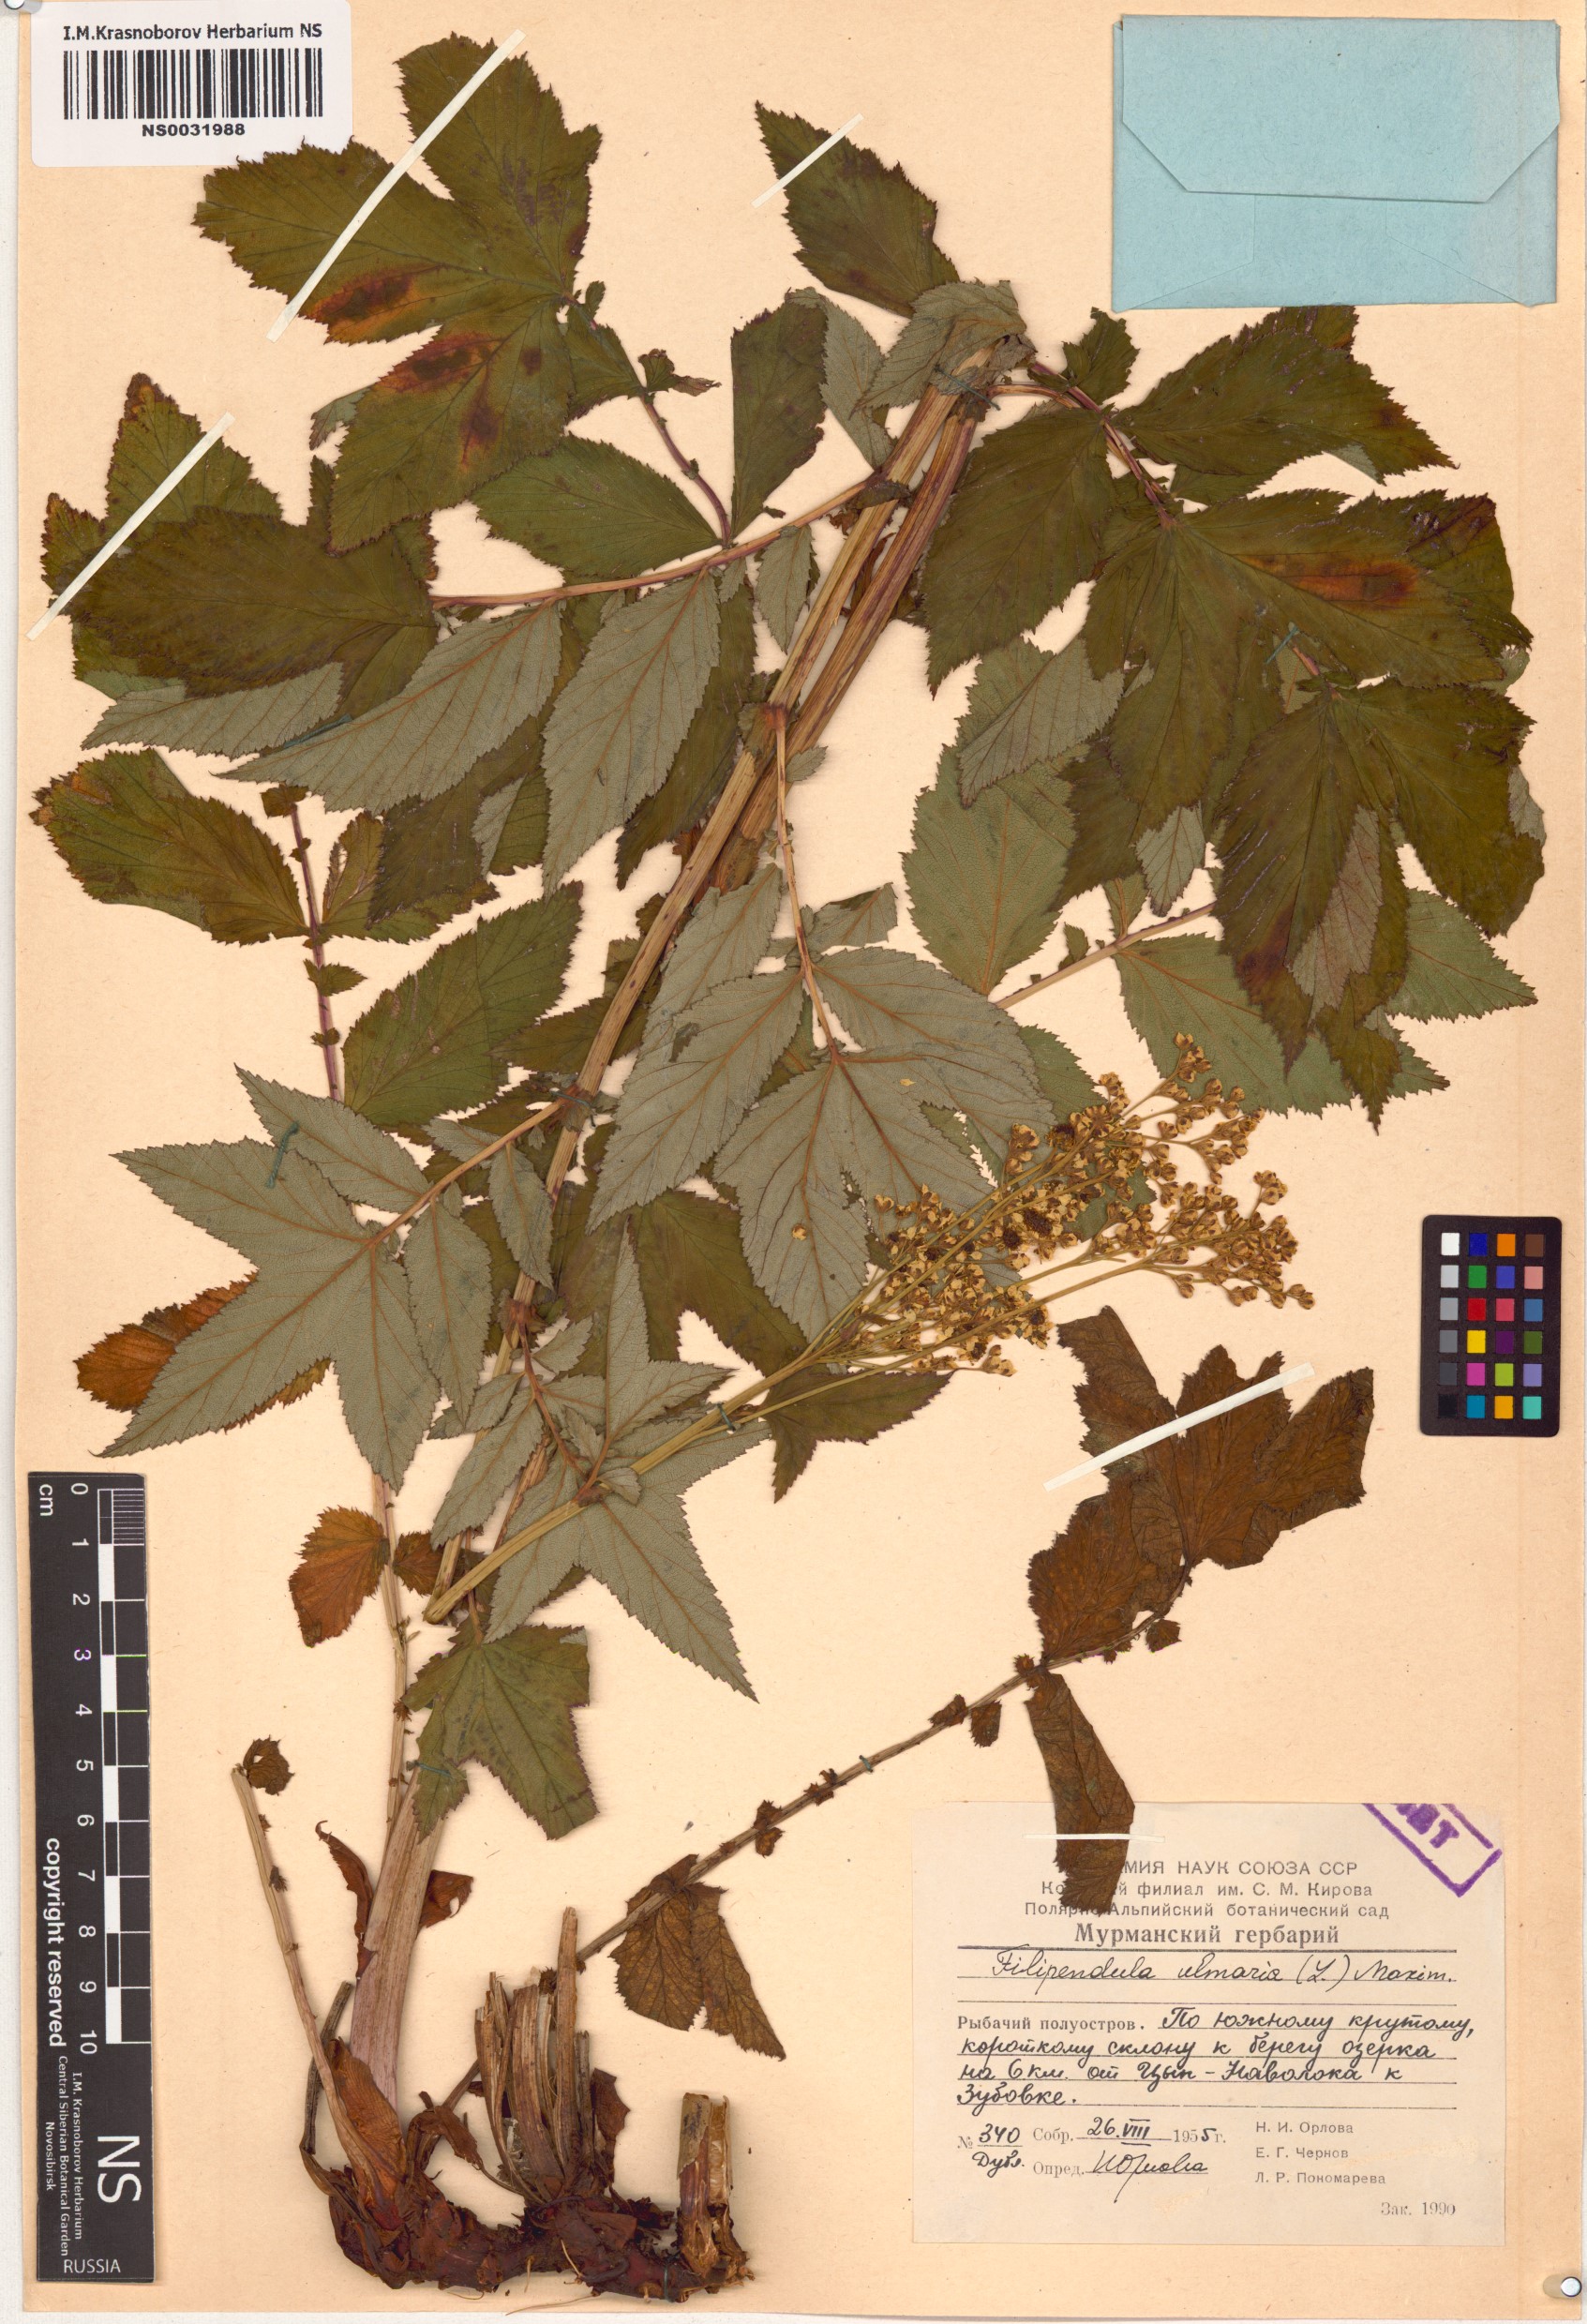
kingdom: Plantae
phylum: Tracheophyta
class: Magnoliopsida
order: Rosales
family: Rosaceae
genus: Filipendula
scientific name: Filipendula ulmaria
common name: Meadowsweet
